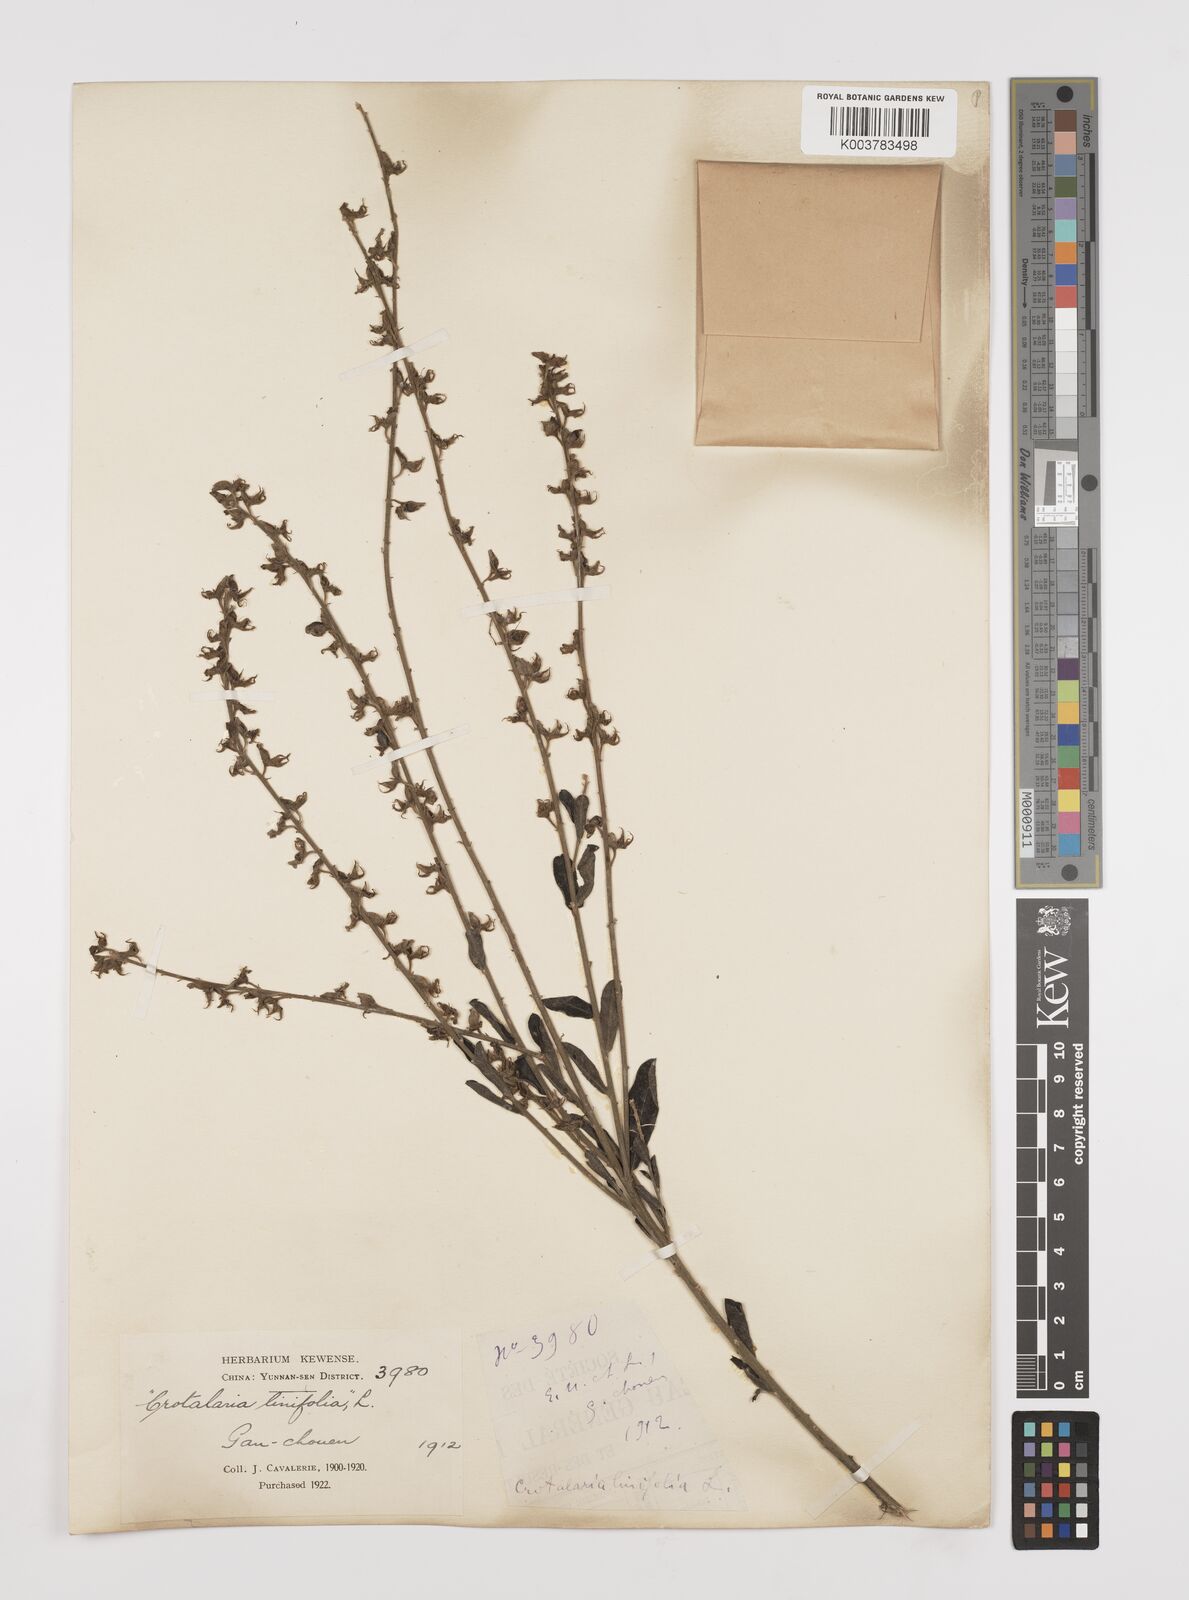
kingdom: Plantae
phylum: Tracheophyta
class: Magnoliopsida
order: Fabales
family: Fabaceae
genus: Crotalaria
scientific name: Crotalaria linifolia
